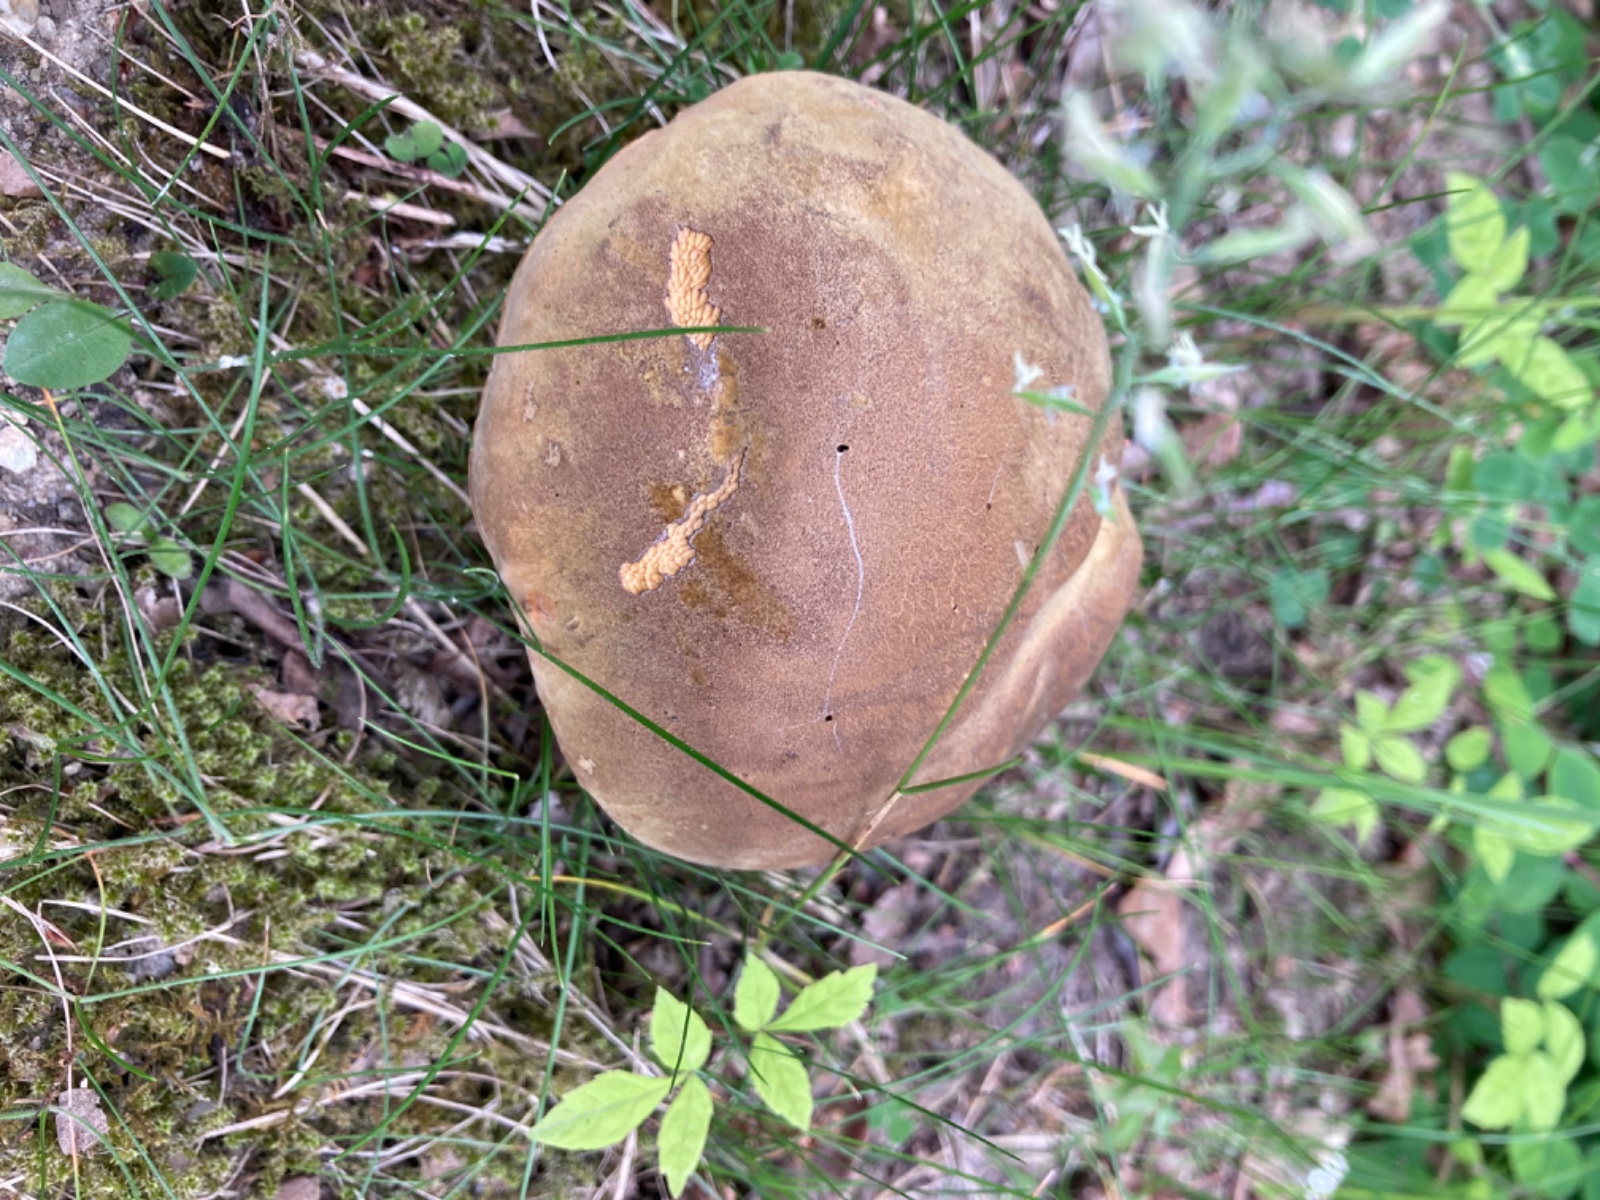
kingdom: Fungi
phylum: Basidiomycota
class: Agaricomycetes
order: Boletales
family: Boletaceae
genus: Suillellus
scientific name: Suillellus luridus
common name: netstokket indigorørhat
